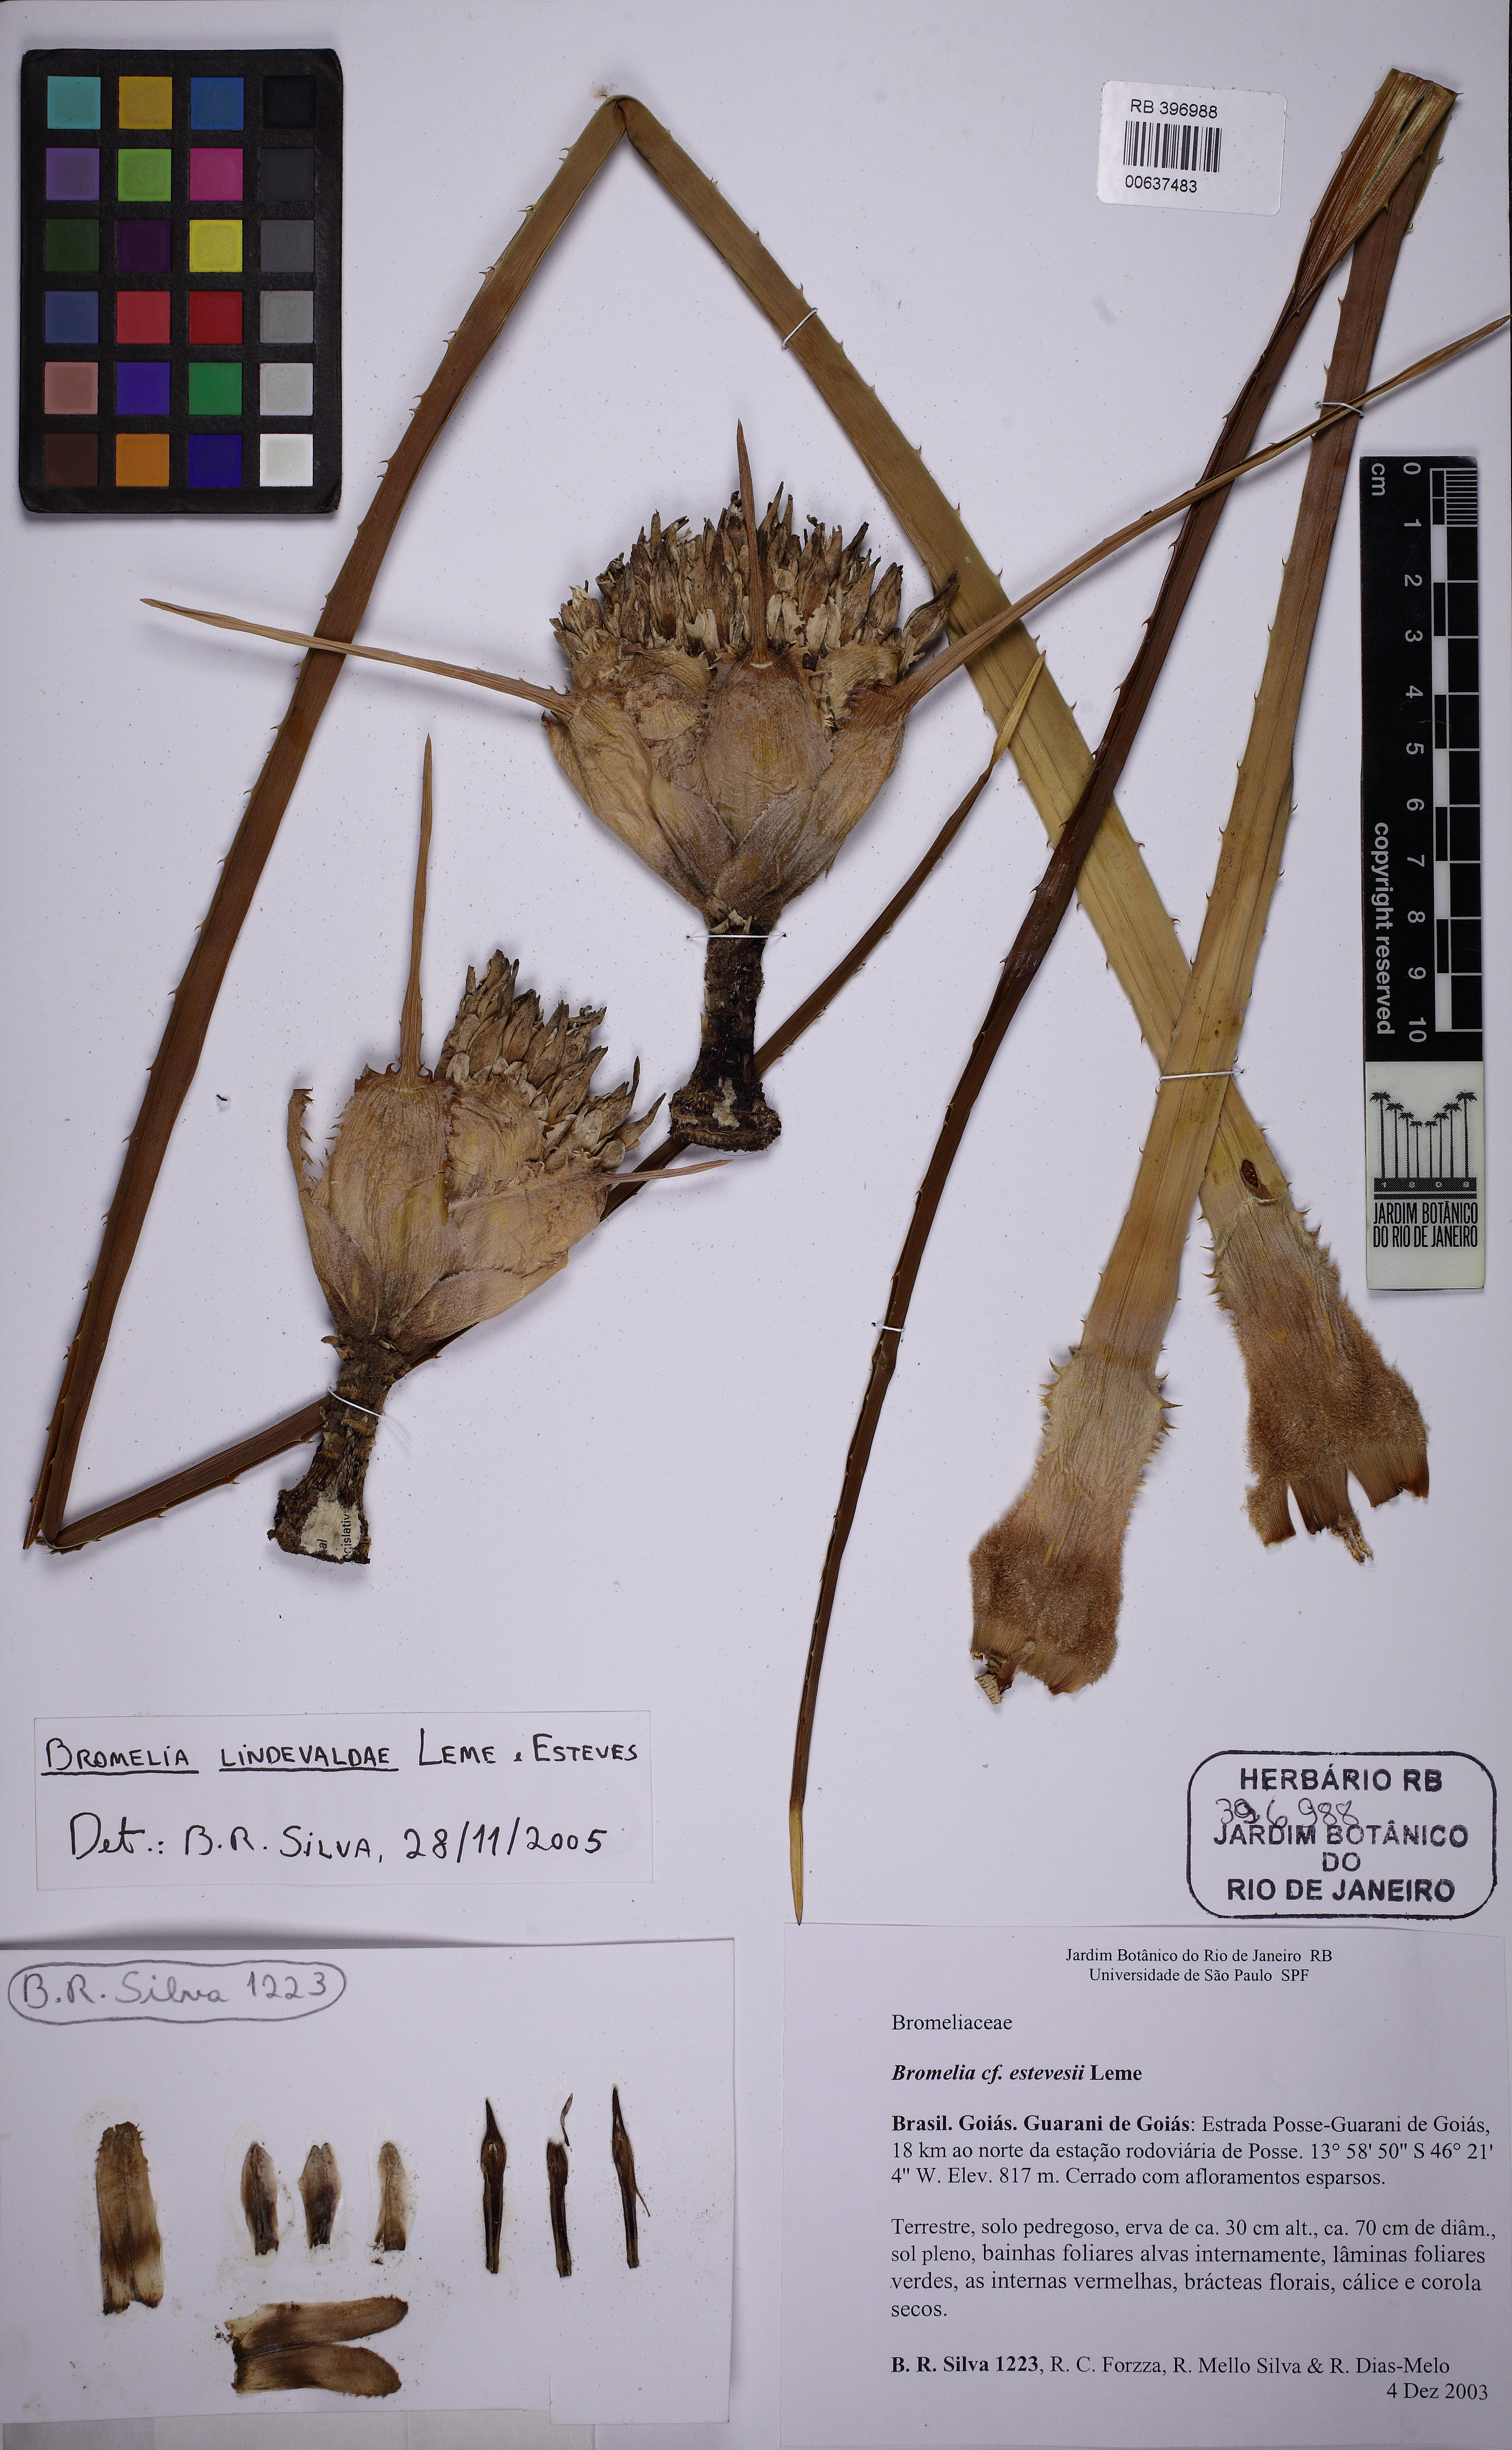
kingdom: Plantae
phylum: Tracheophyta
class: Liliopsida
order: Poales
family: Bromeliaceae
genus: Bromelia
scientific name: Bromelia lindevaldae
